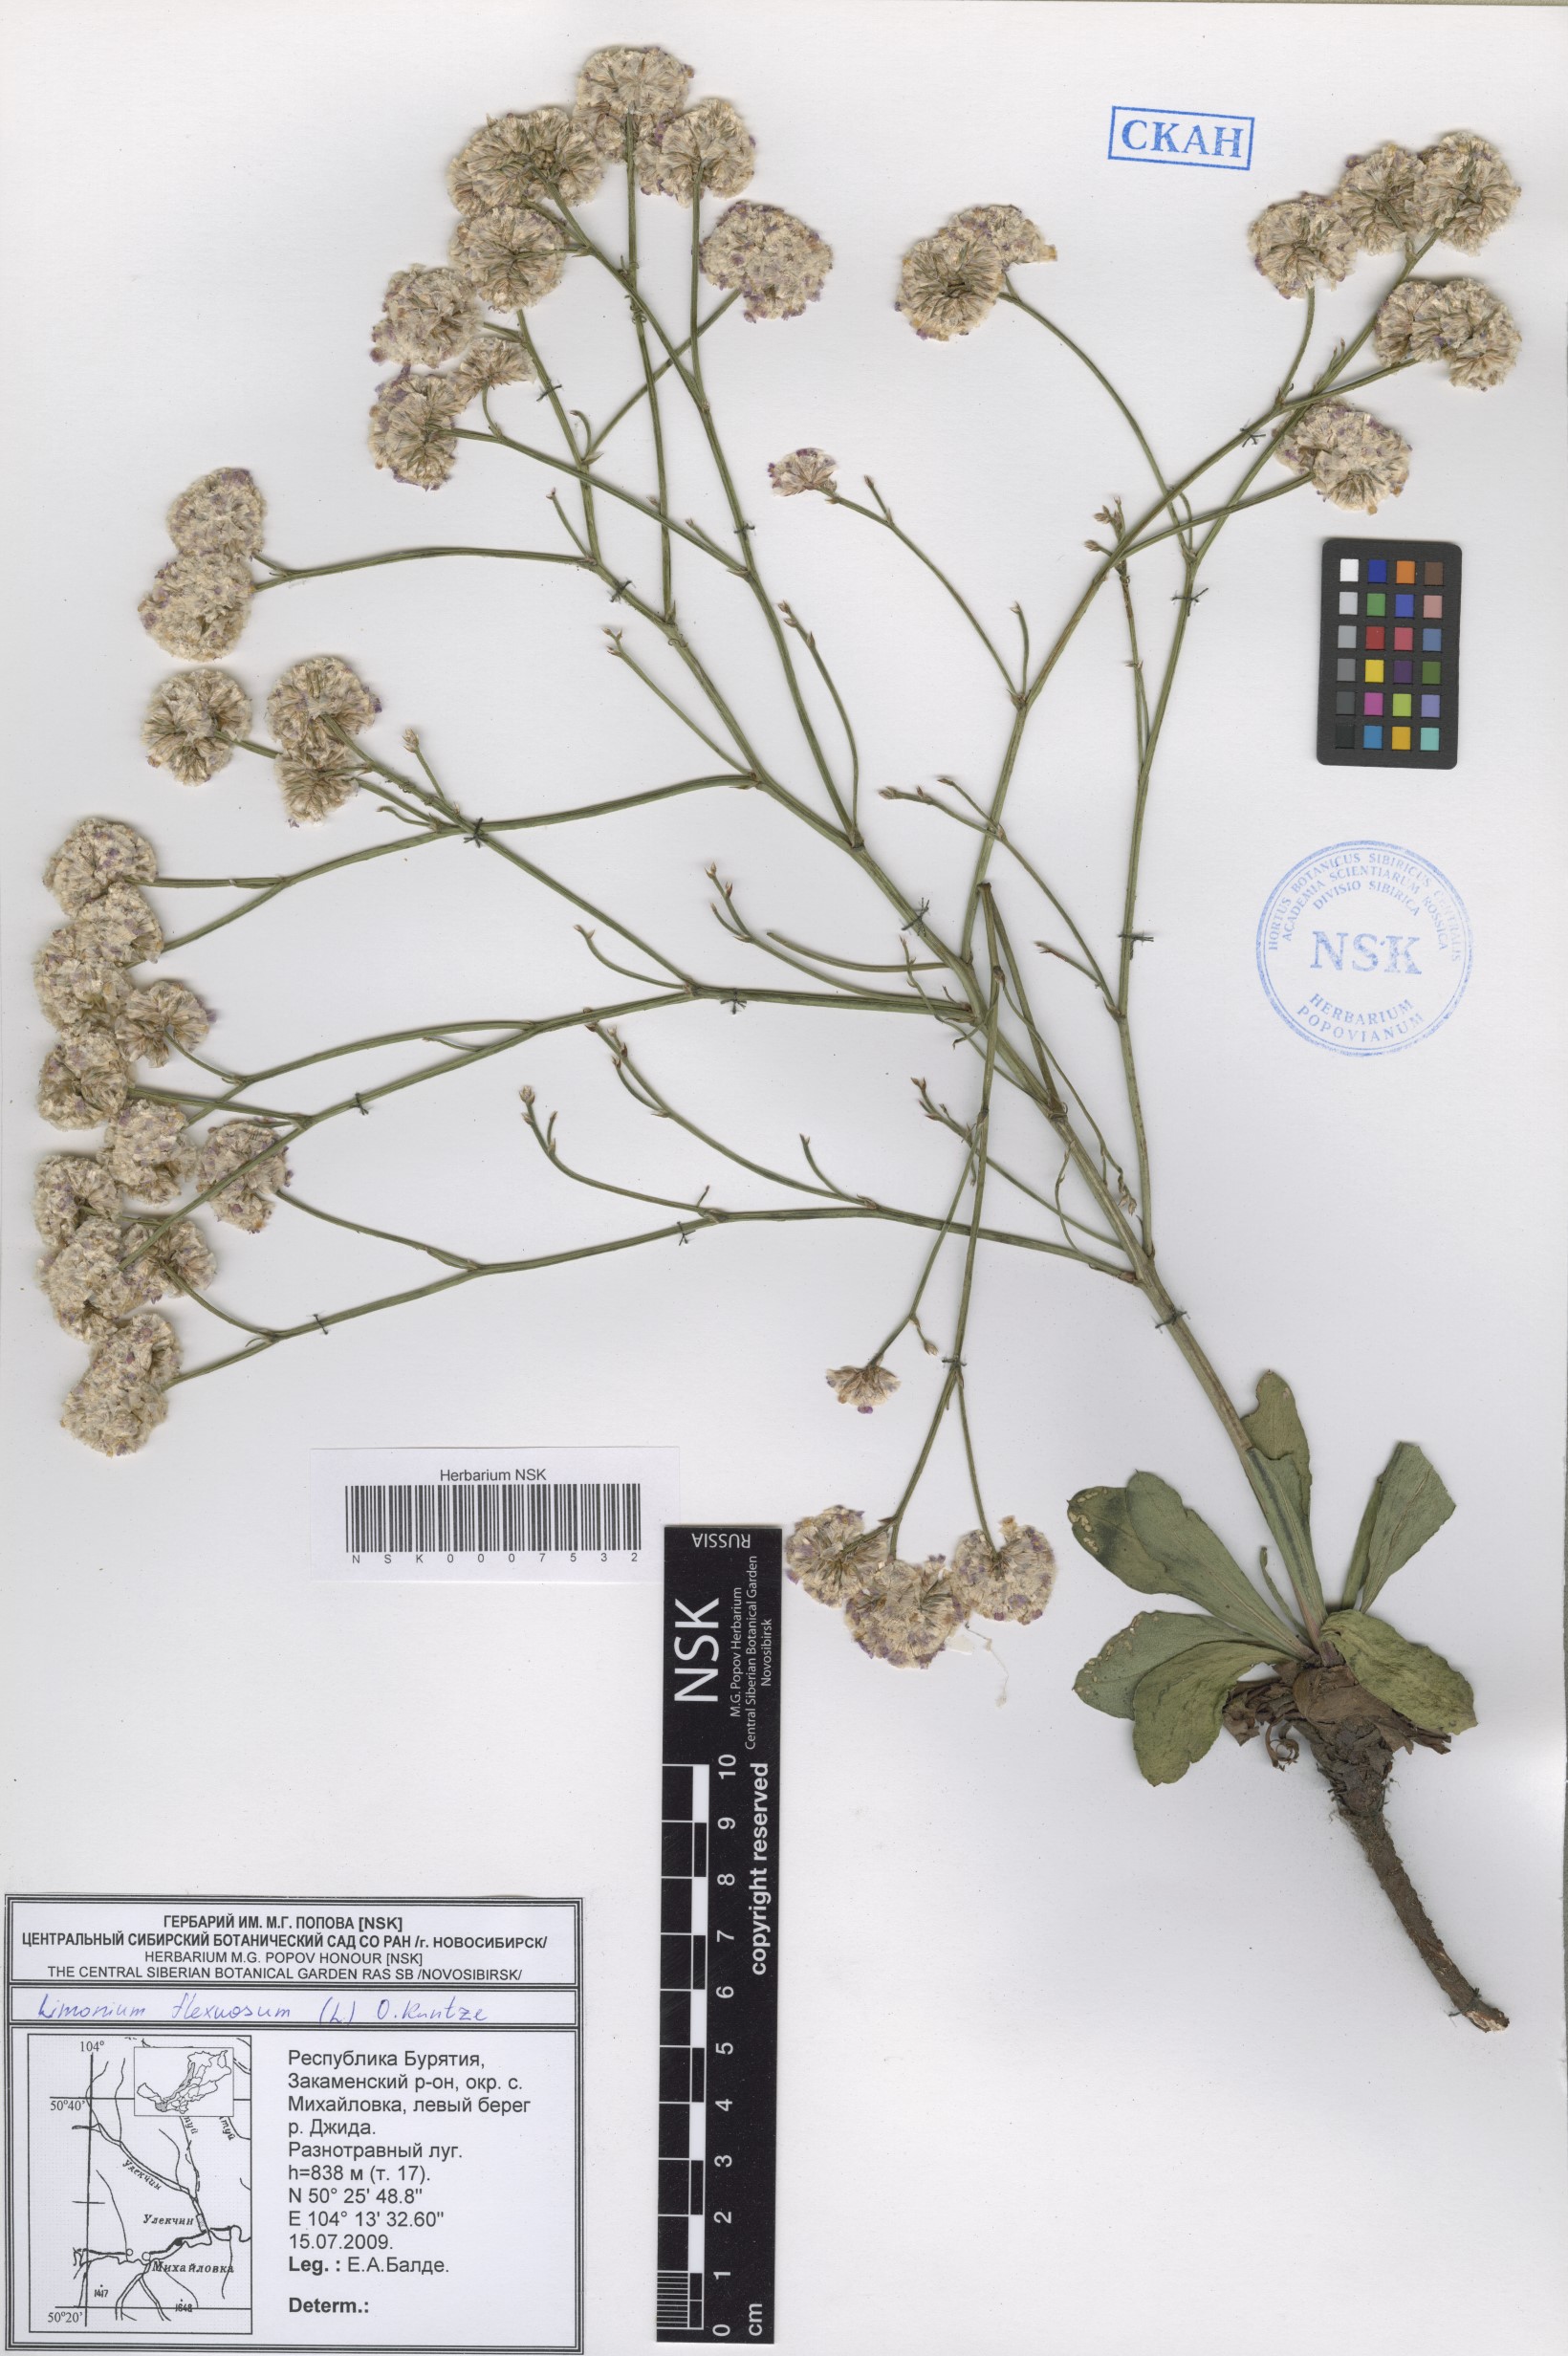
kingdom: Plantae
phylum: Tracheophyta
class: Magnoliopsida
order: Caryophyllales
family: Plumbaginaceae
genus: Limonium
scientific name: Limonium flexuosum
